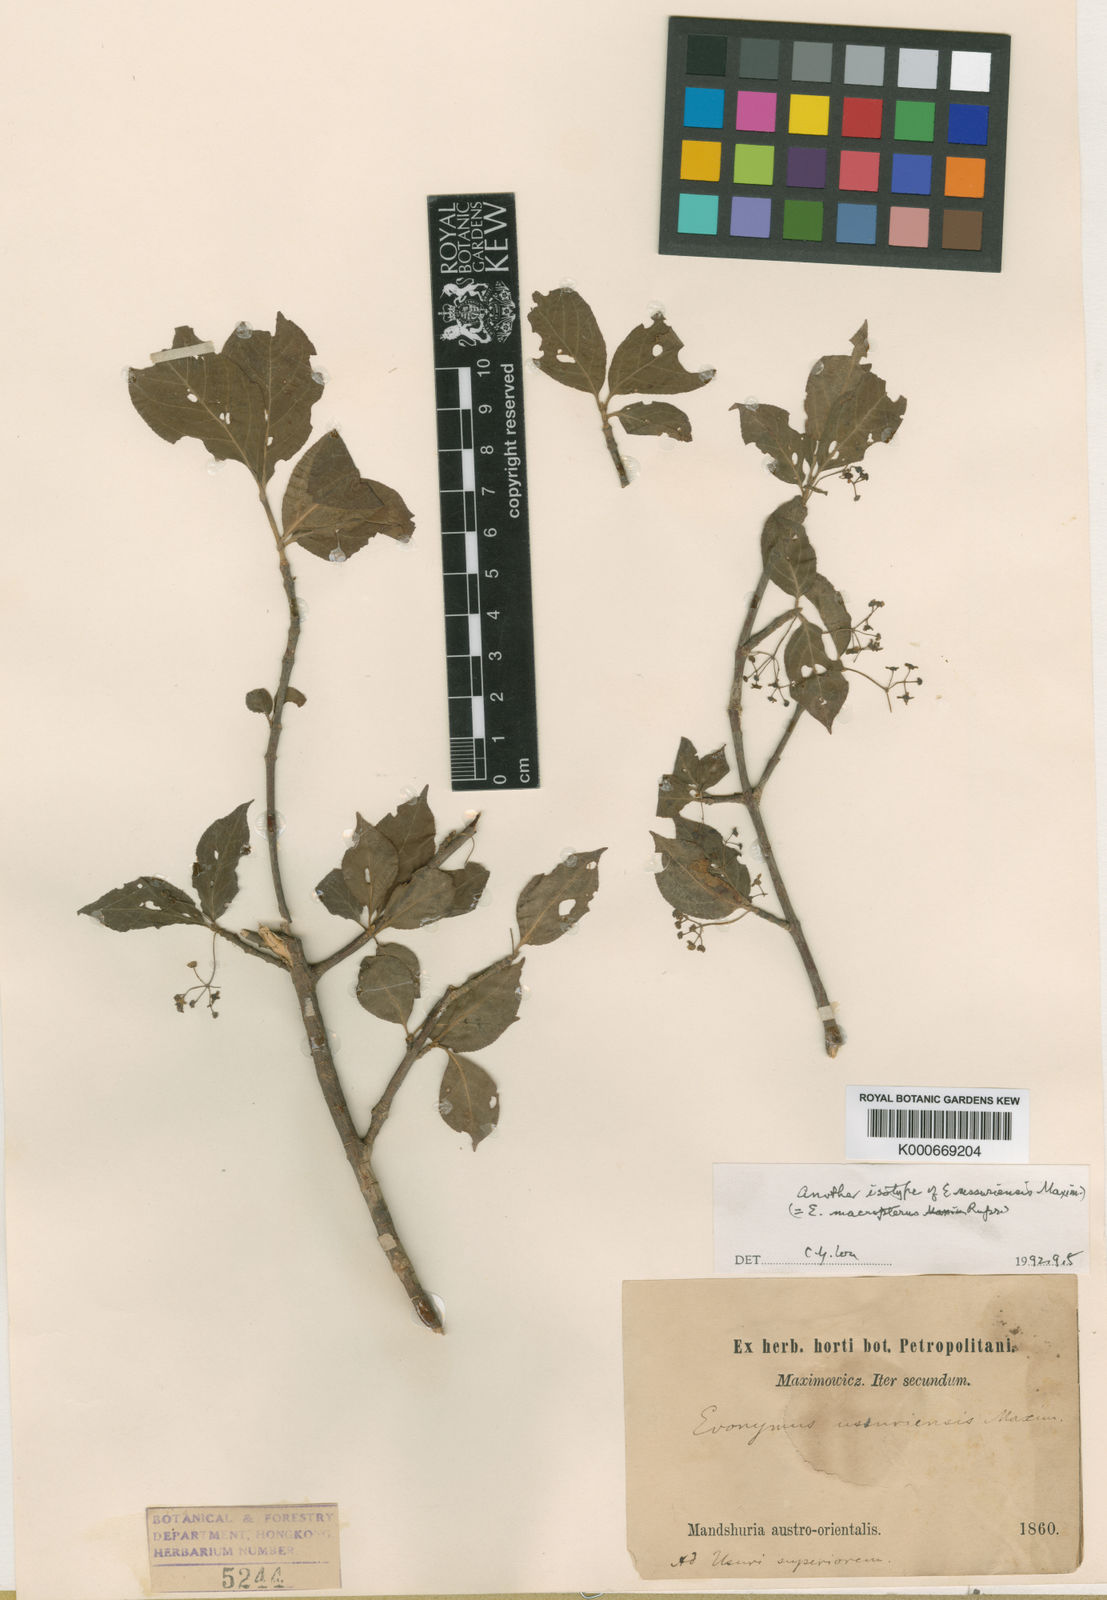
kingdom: Plantae
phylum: Tracheophyta
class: Magnoliopsida
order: Celastrales
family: Celastraceae
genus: Euonymus
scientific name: Euonymus macropterus
